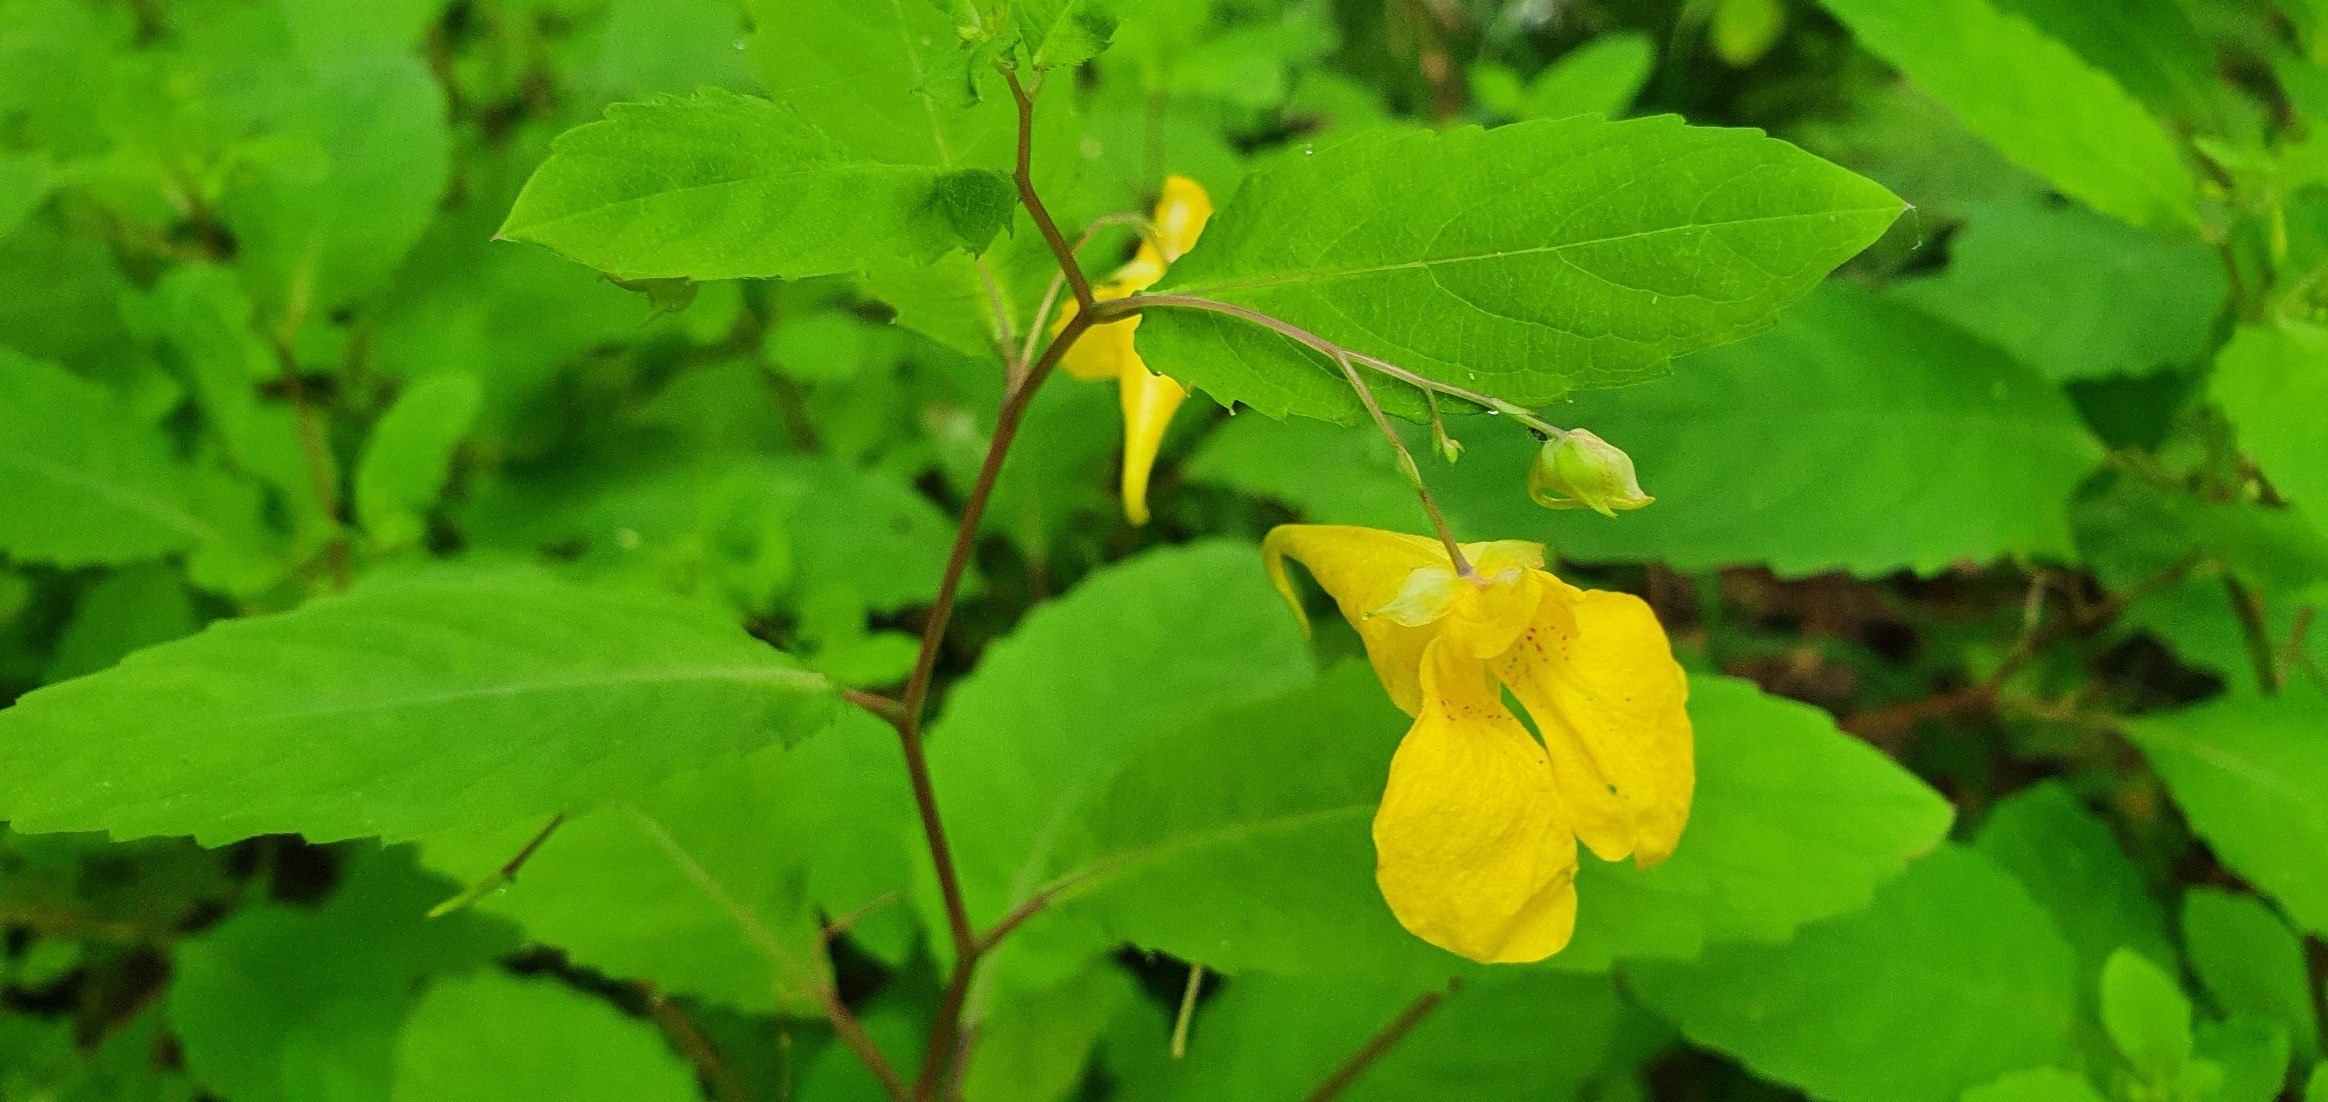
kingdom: Plantae
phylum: Tracheophyta
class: Magnoliopsida
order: Ericales
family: Balsaminaceae
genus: Impatiens
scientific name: Impatiens noli-tangere
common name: Spring-balsamin
